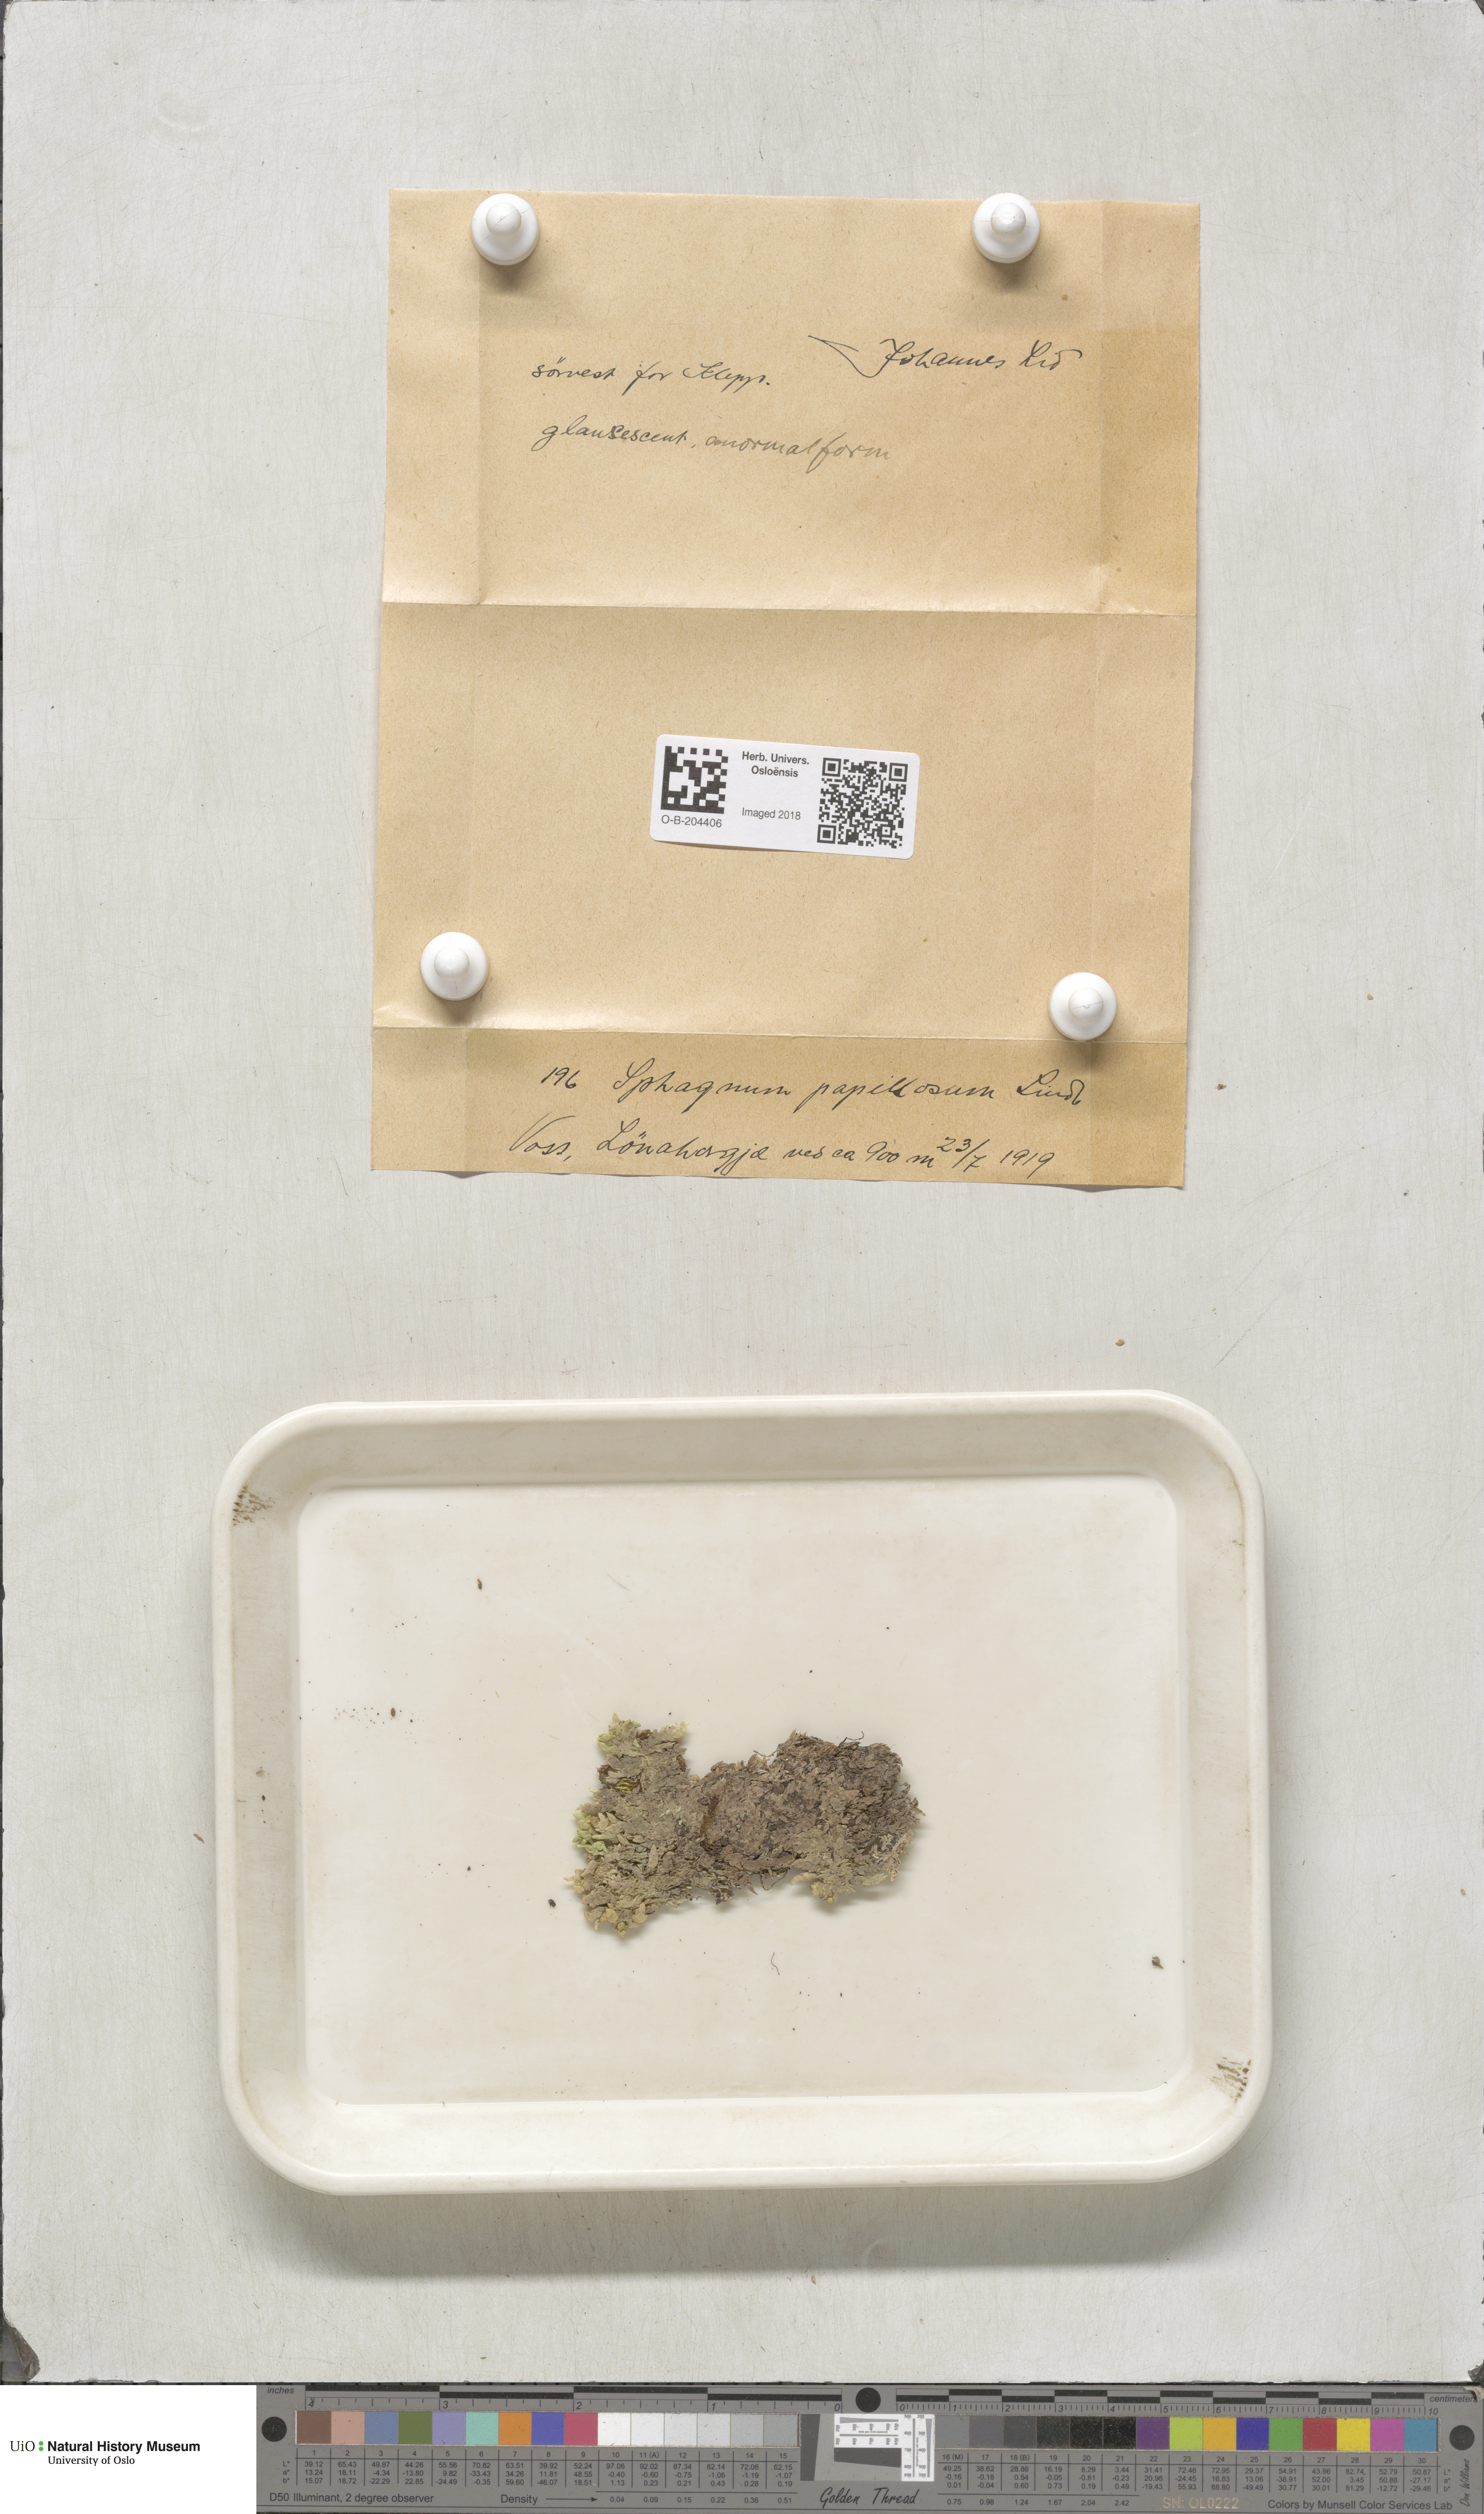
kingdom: Plantae
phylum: Bryophyta
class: Sphagnopsida
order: Sphagnales
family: Sphagnaceae
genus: Sphagnum
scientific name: Sphagnum papillosum
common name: Papillose peat moss
